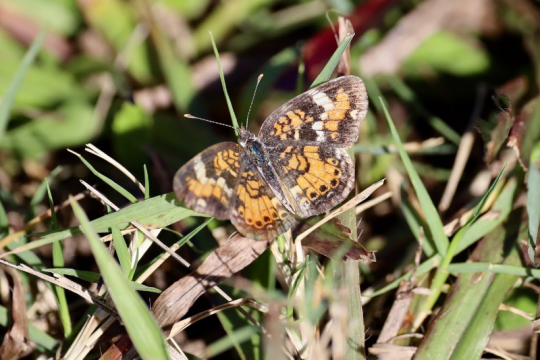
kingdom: Animalia
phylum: Arthropoda
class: Insecta
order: Lepidoptera
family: Nymphalidae
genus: Phyciodes
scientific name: Phyciodes phaon
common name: Phaon Crescent
